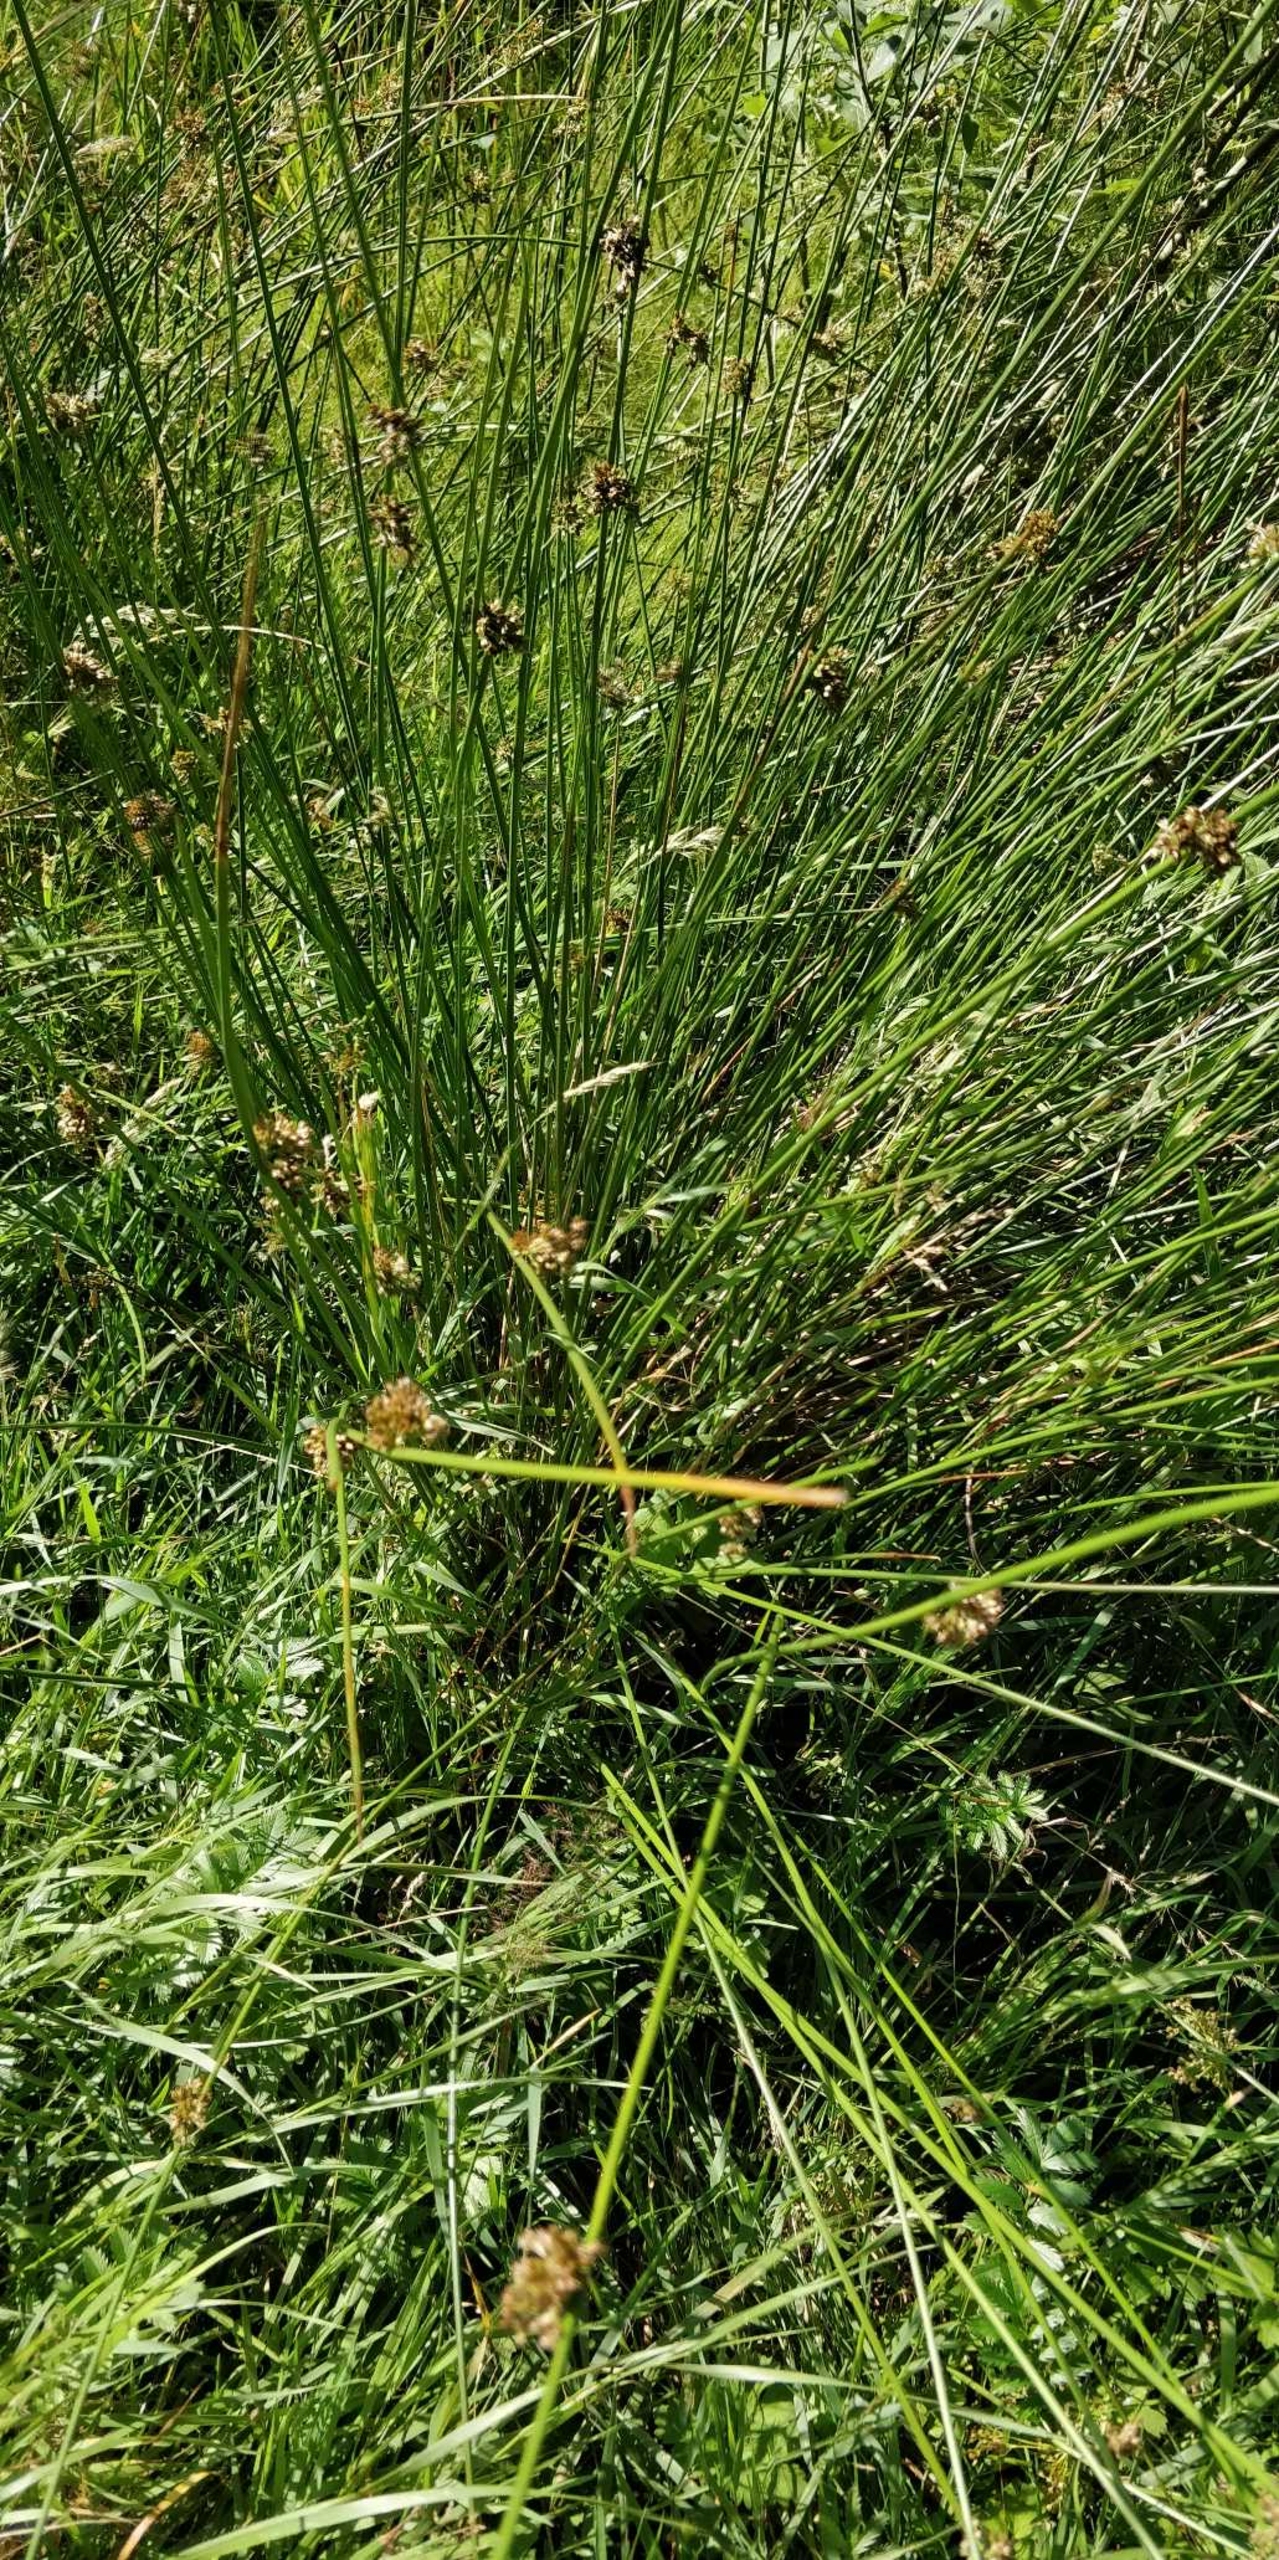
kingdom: Plantae
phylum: Tracheophyta
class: Liliopsida
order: Poales
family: Juncaceae
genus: Juncus
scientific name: Juncus effusus
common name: Lyse-siv
